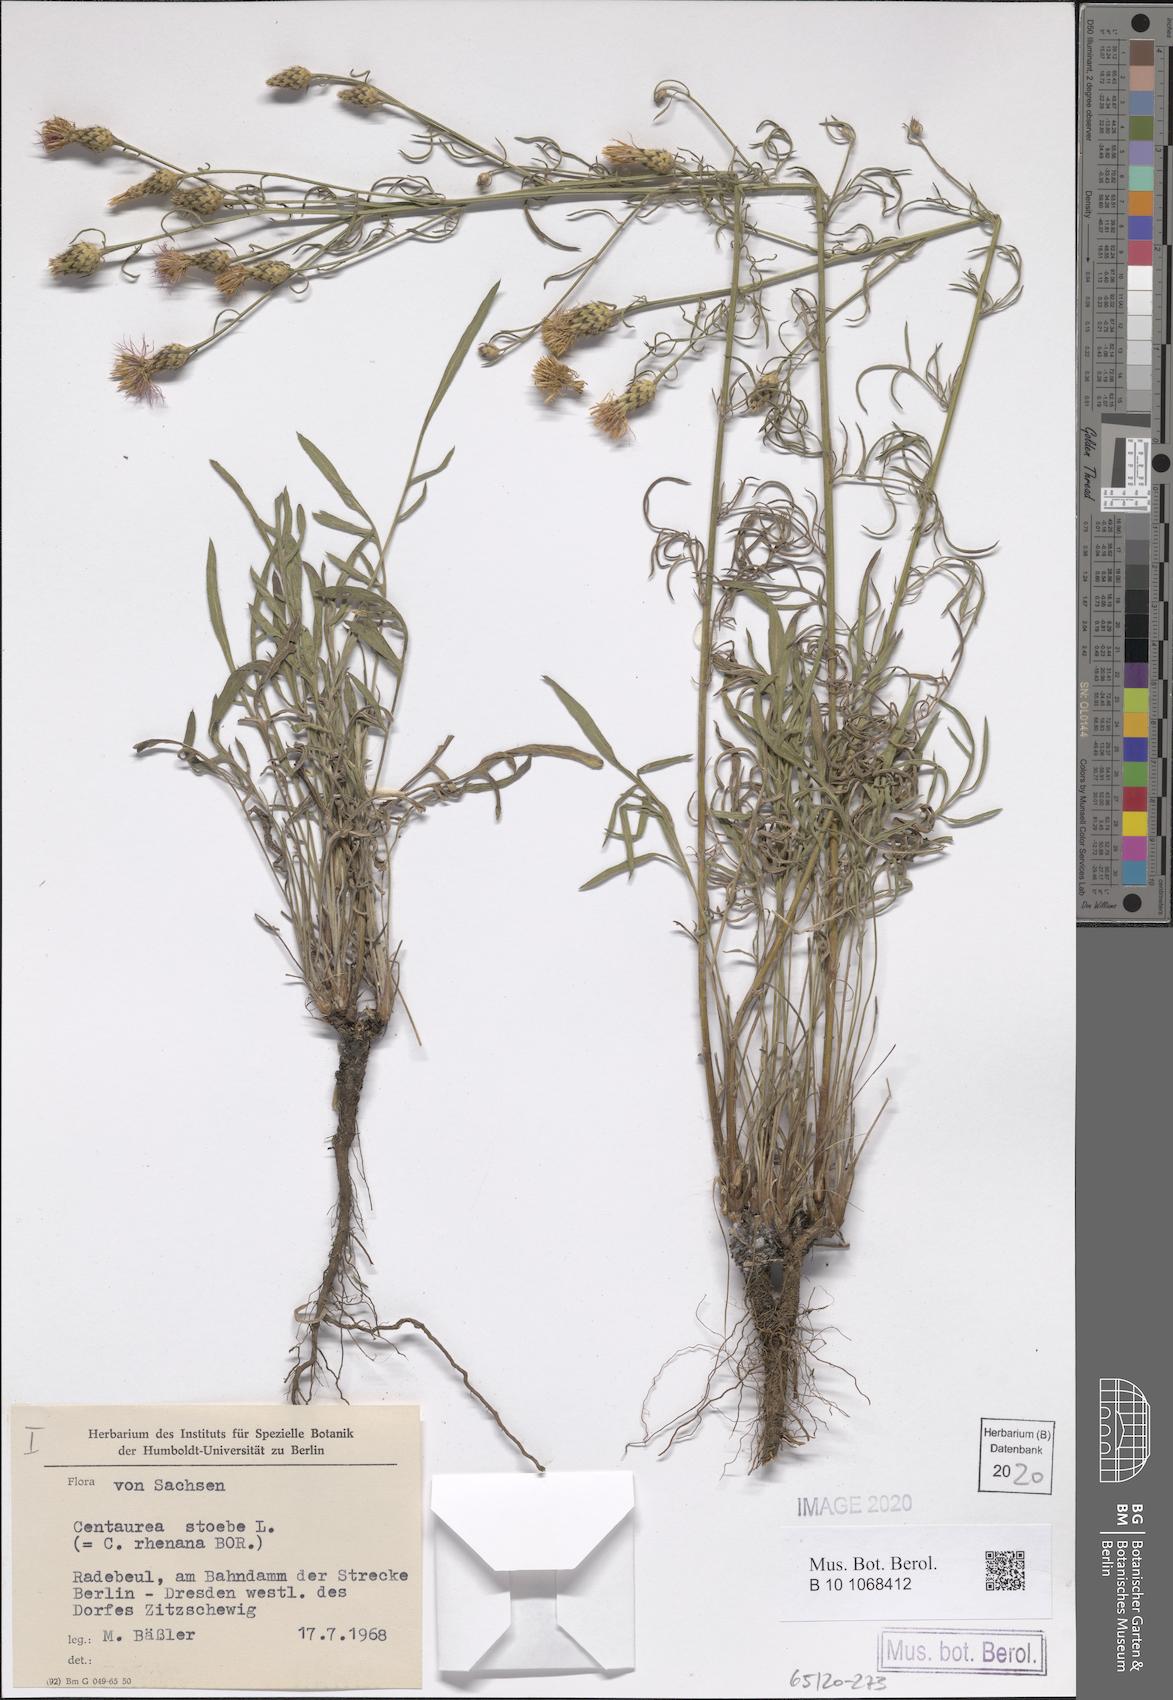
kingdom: Plantae
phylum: Tracheophyta
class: Magnoliopsida
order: Asterales
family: Asteraceae
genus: Centaurea
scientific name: Centaurea stoebe
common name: Spotted knapweed
